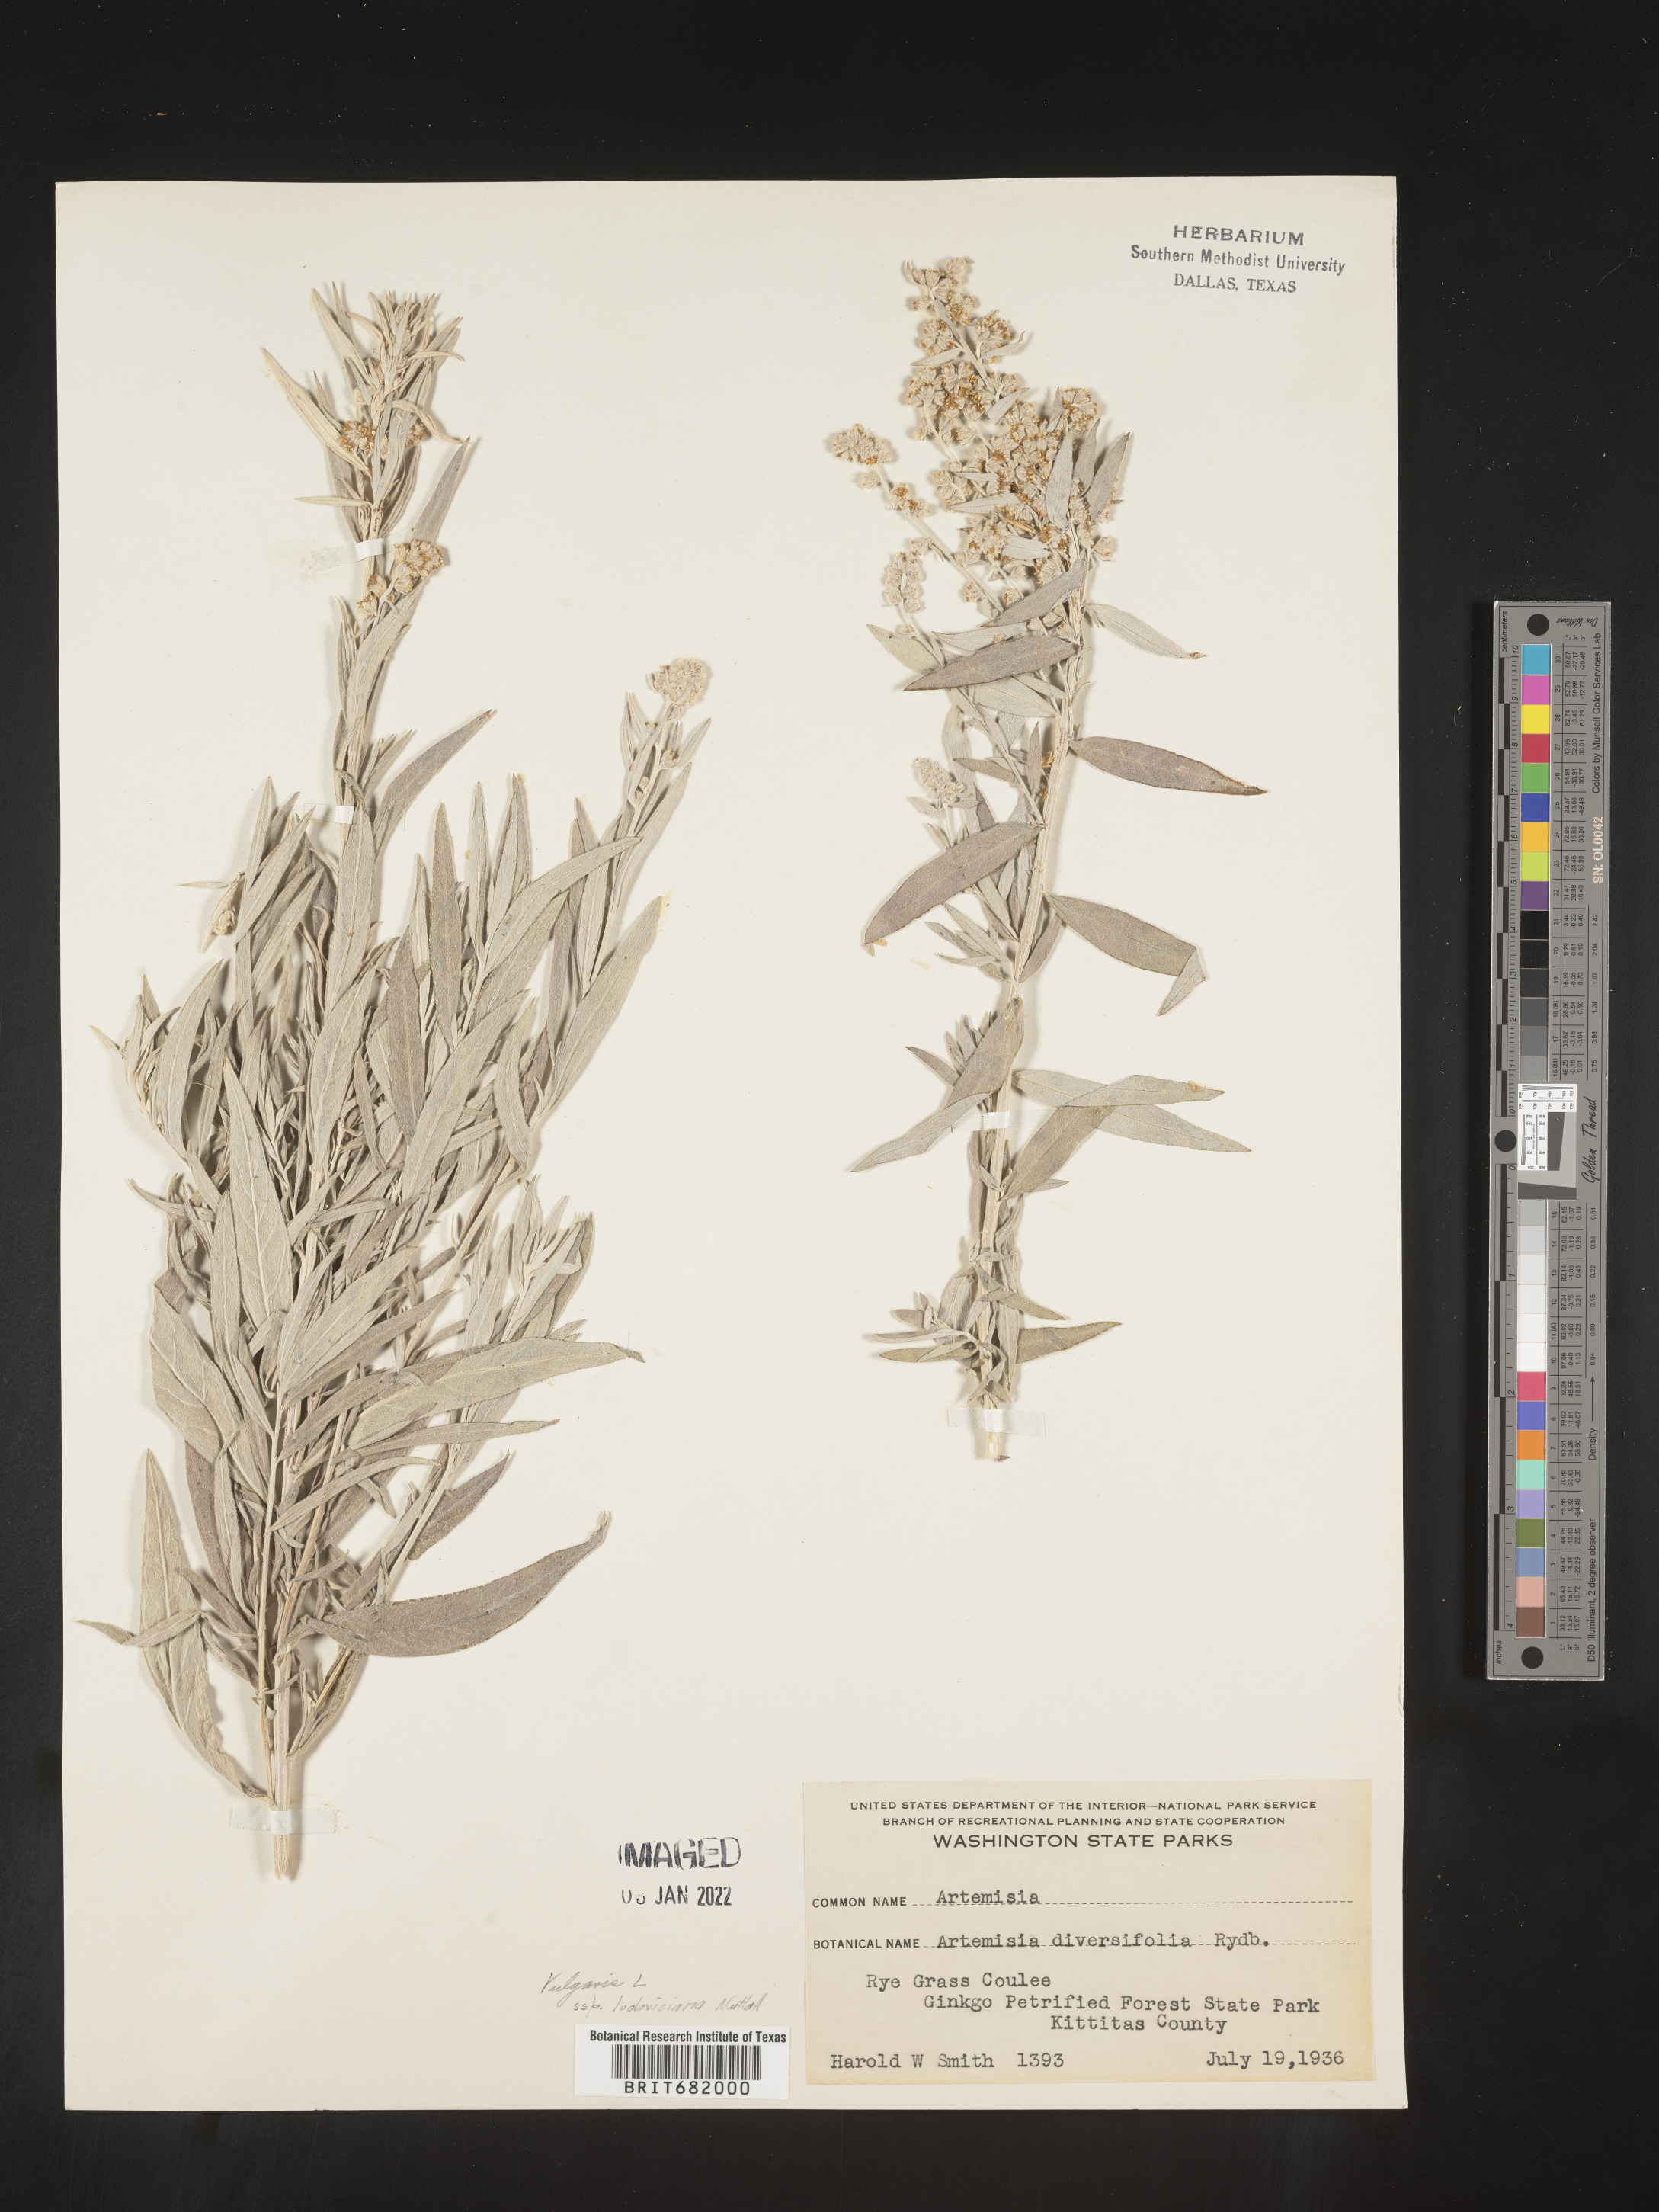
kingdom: Plantae
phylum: Tracheophyta
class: Magnoliopsida
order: Asterales
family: Asteraceae
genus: Artemisia
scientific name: Artemisia ludoviciana
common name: Western mugwort
